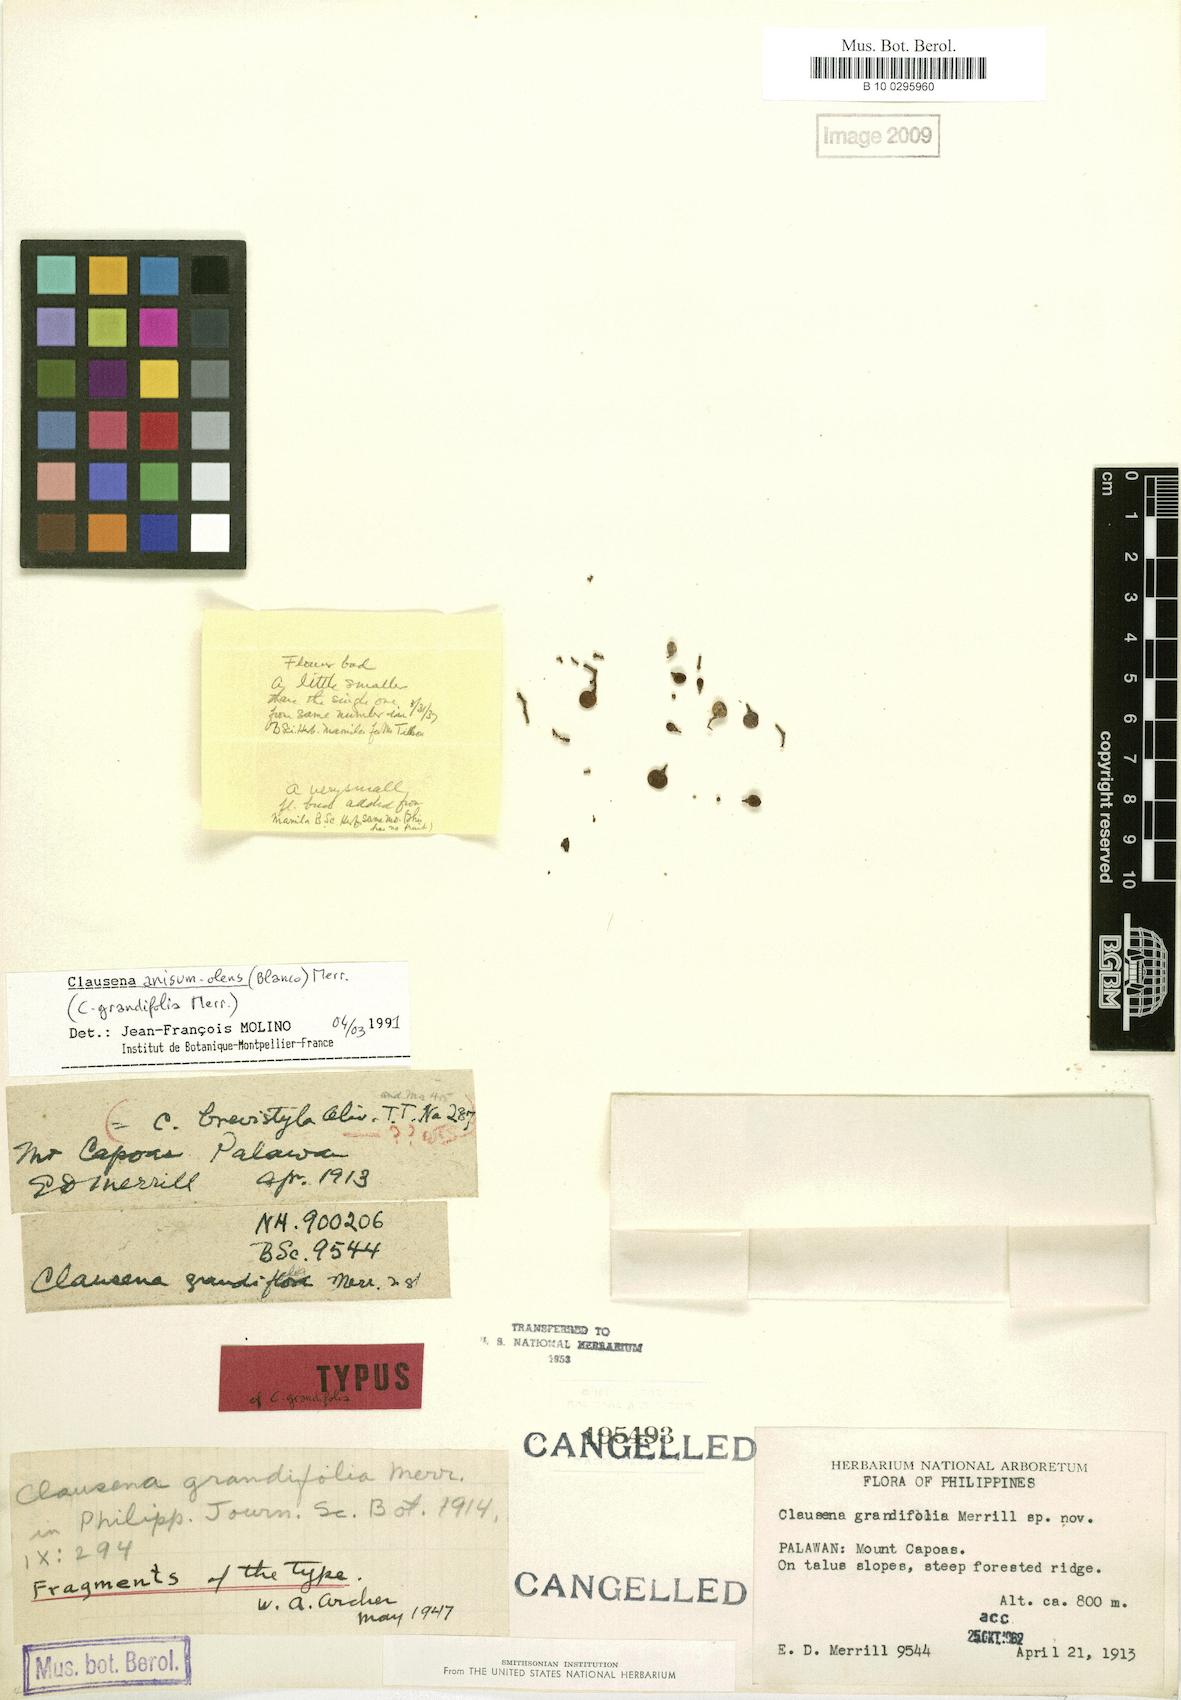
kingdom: Plantae
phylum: Tracheophyta
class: Magnoliopsida
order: Sapindales
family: Rutaceae
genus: Clausena
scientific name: Clausena anisum-olens
